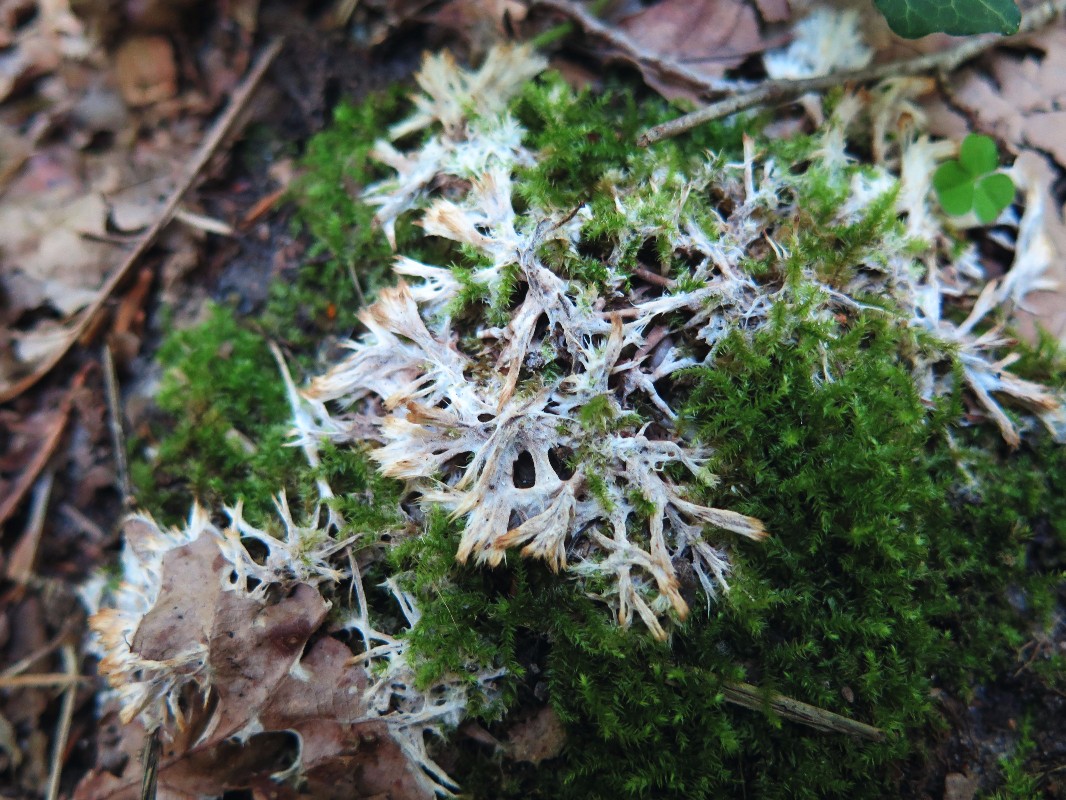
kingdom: Fungi
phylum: Basidiomycota
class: Agaricomycetes
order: Thelephorales
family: Thelephoraceae
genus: Thelephora
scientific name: Thelephora penicillata
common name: fladtrådt frynsesvamp
